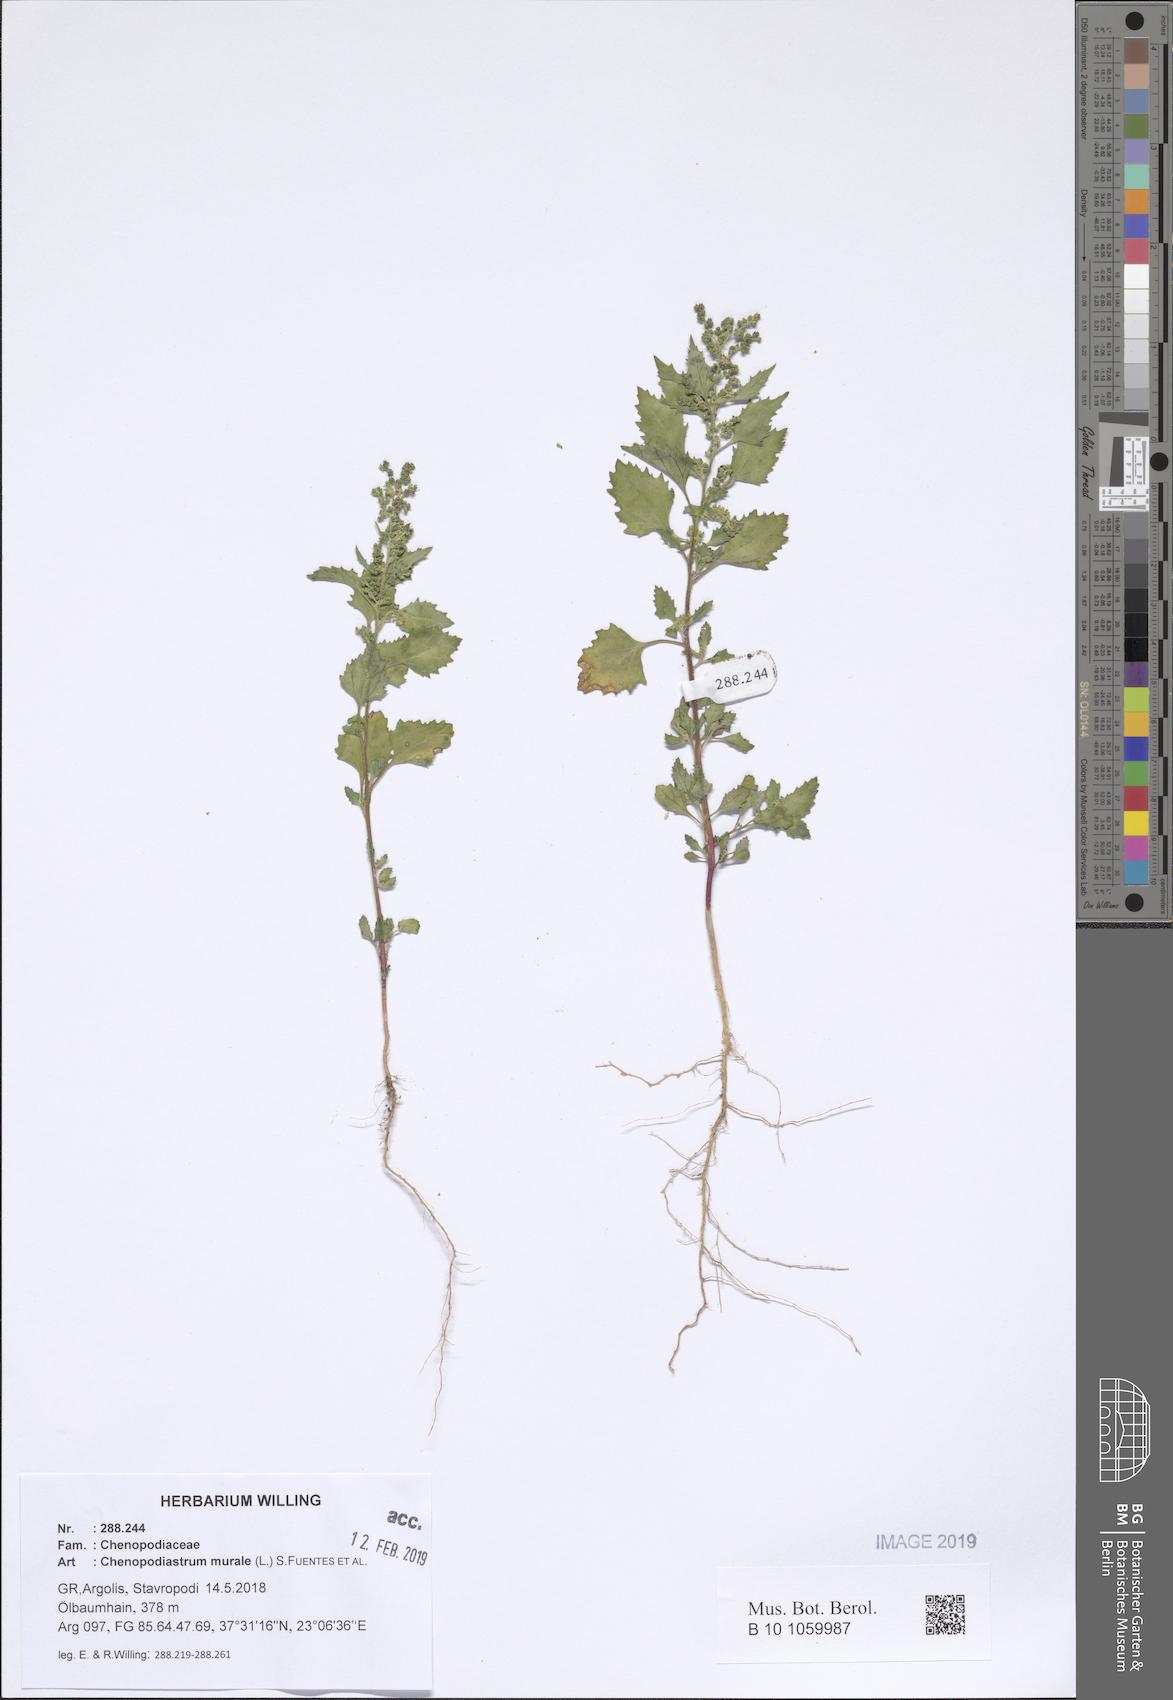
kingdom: Plantae
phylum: Tracheophyta
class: Magnoliopsida
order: Caryophyllales
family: Amaranthaceae
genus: Chenopodiastrum
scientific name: Chenopodiastrum murale
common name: Sowbane
